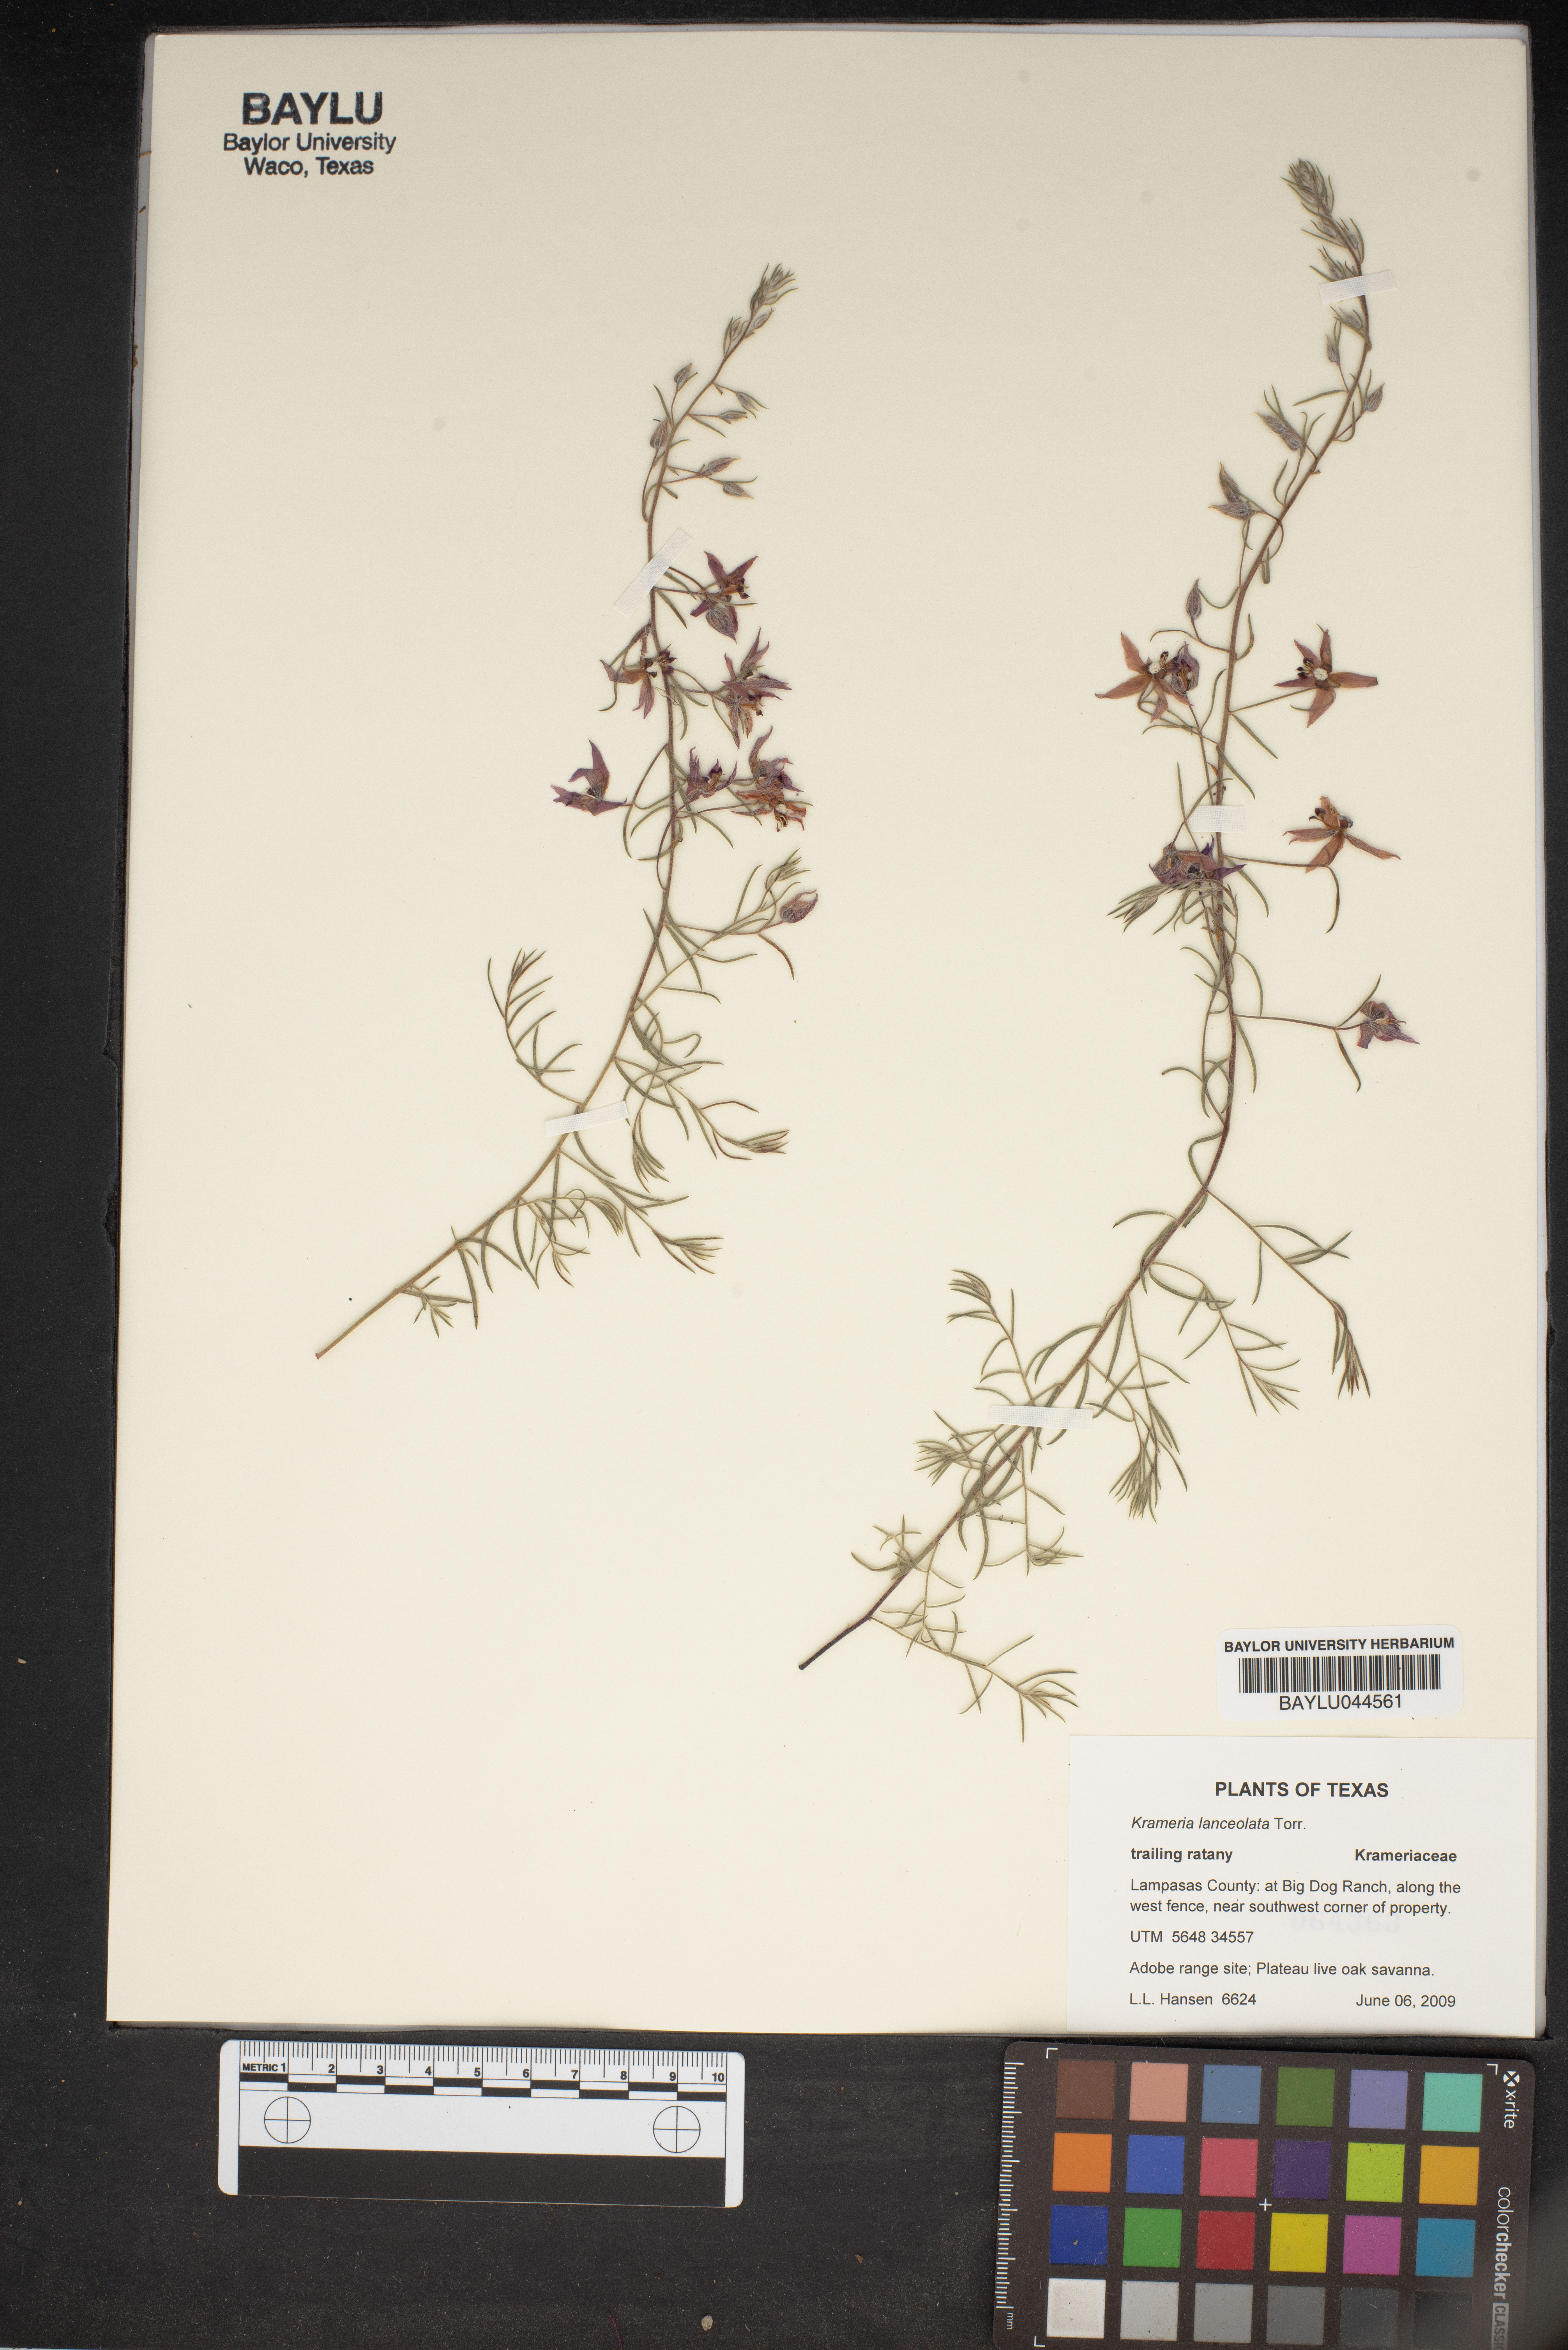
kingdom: Plantae
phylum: Tracheophyta
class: Magnoliopsida
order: Zygophyllales
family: Krameriaceae
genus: Krameria
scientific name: Krameria lanceolata
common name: Ratany
